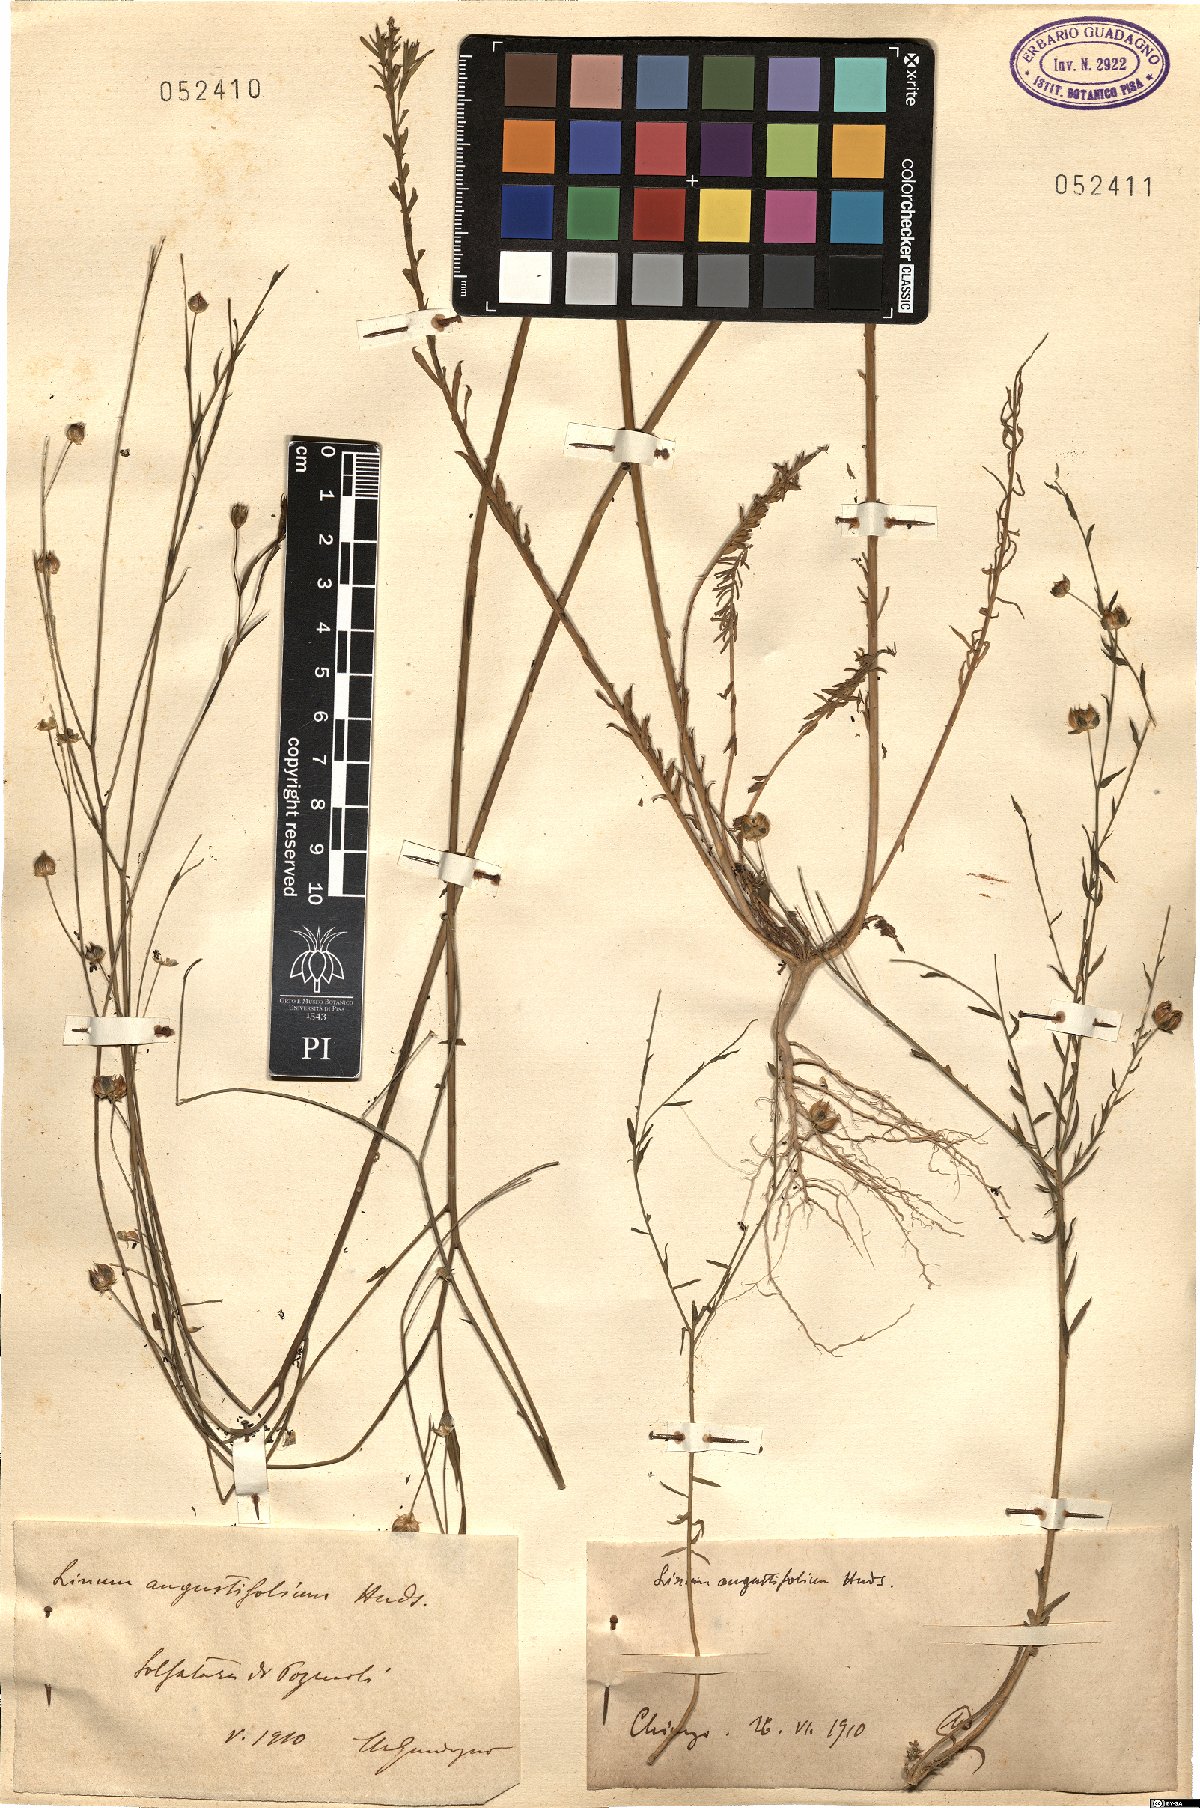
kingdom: Plantae
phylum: Tracheophyta
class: Magnoliopsida
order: Malpighiales
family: Linaceae
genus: Linum
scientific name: Linum bienne
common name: Pale flax
